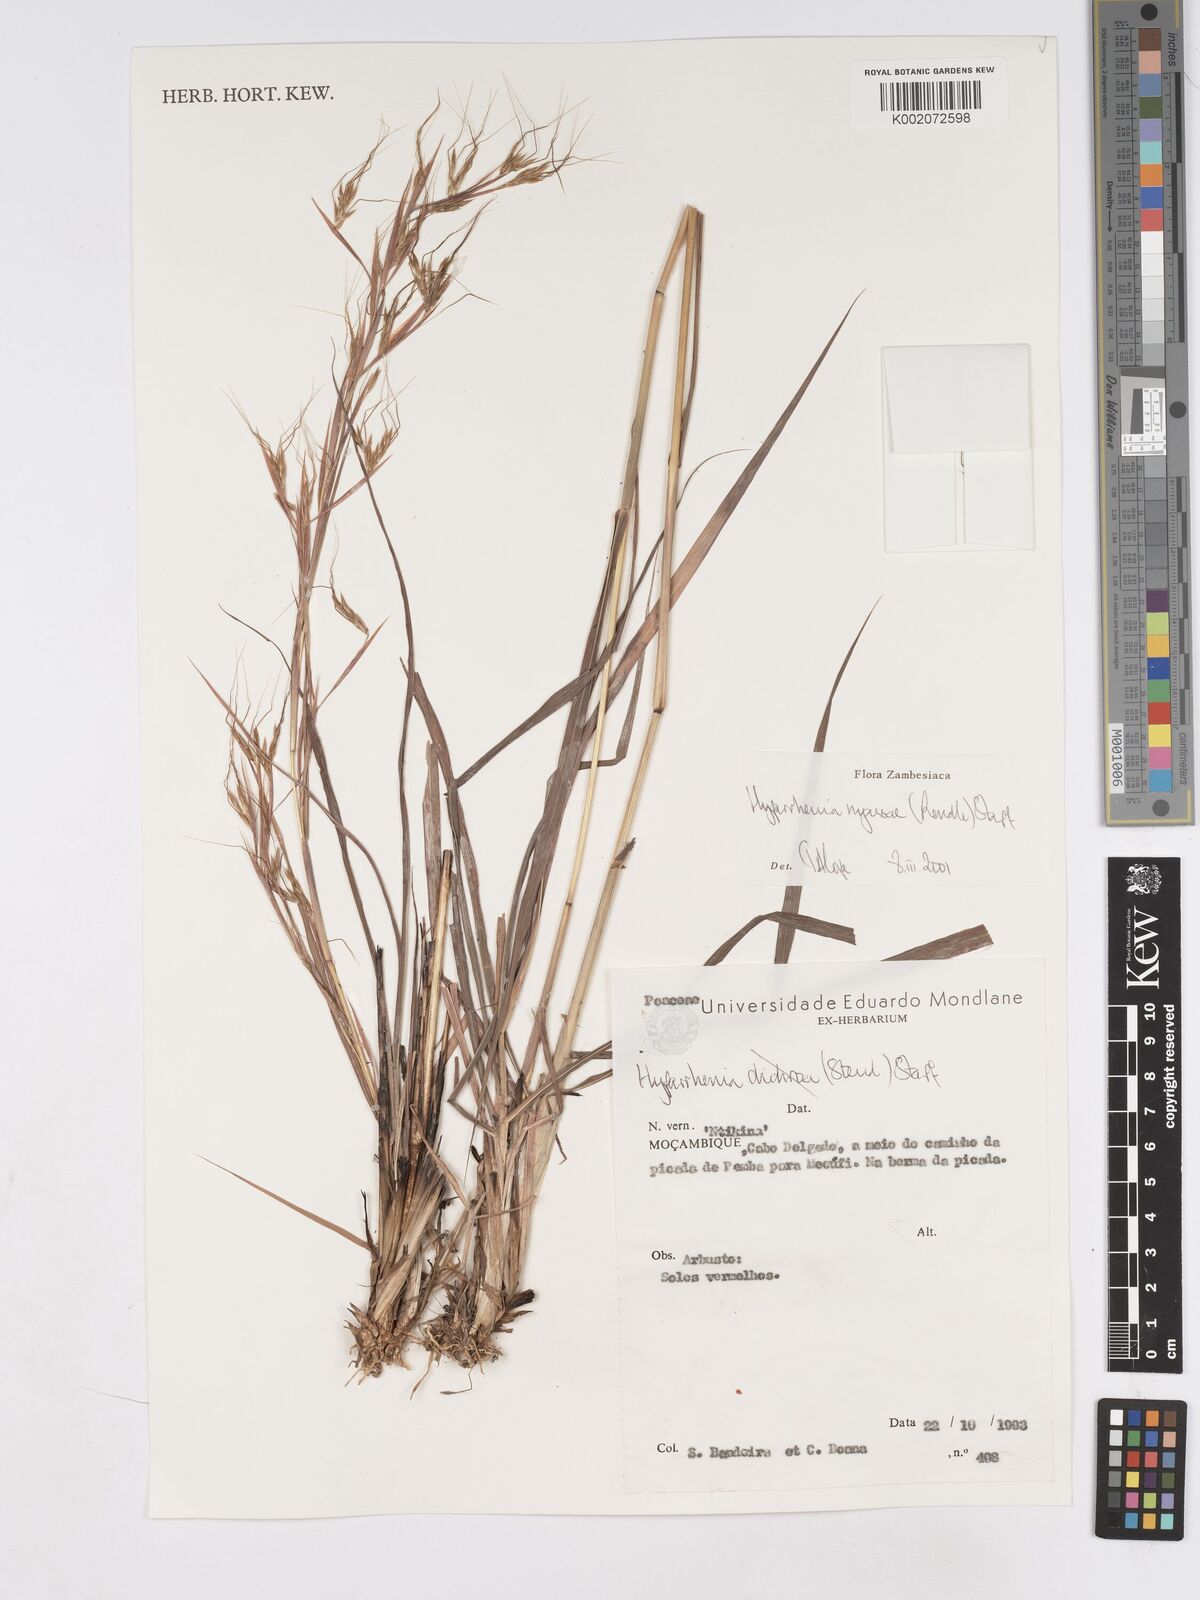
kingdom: Plantae
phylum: Tracheophyta
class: Liliopsida
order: Poales
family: Poaceae
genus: Hyparrhenia
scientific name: Hyparrhenia nyassae
